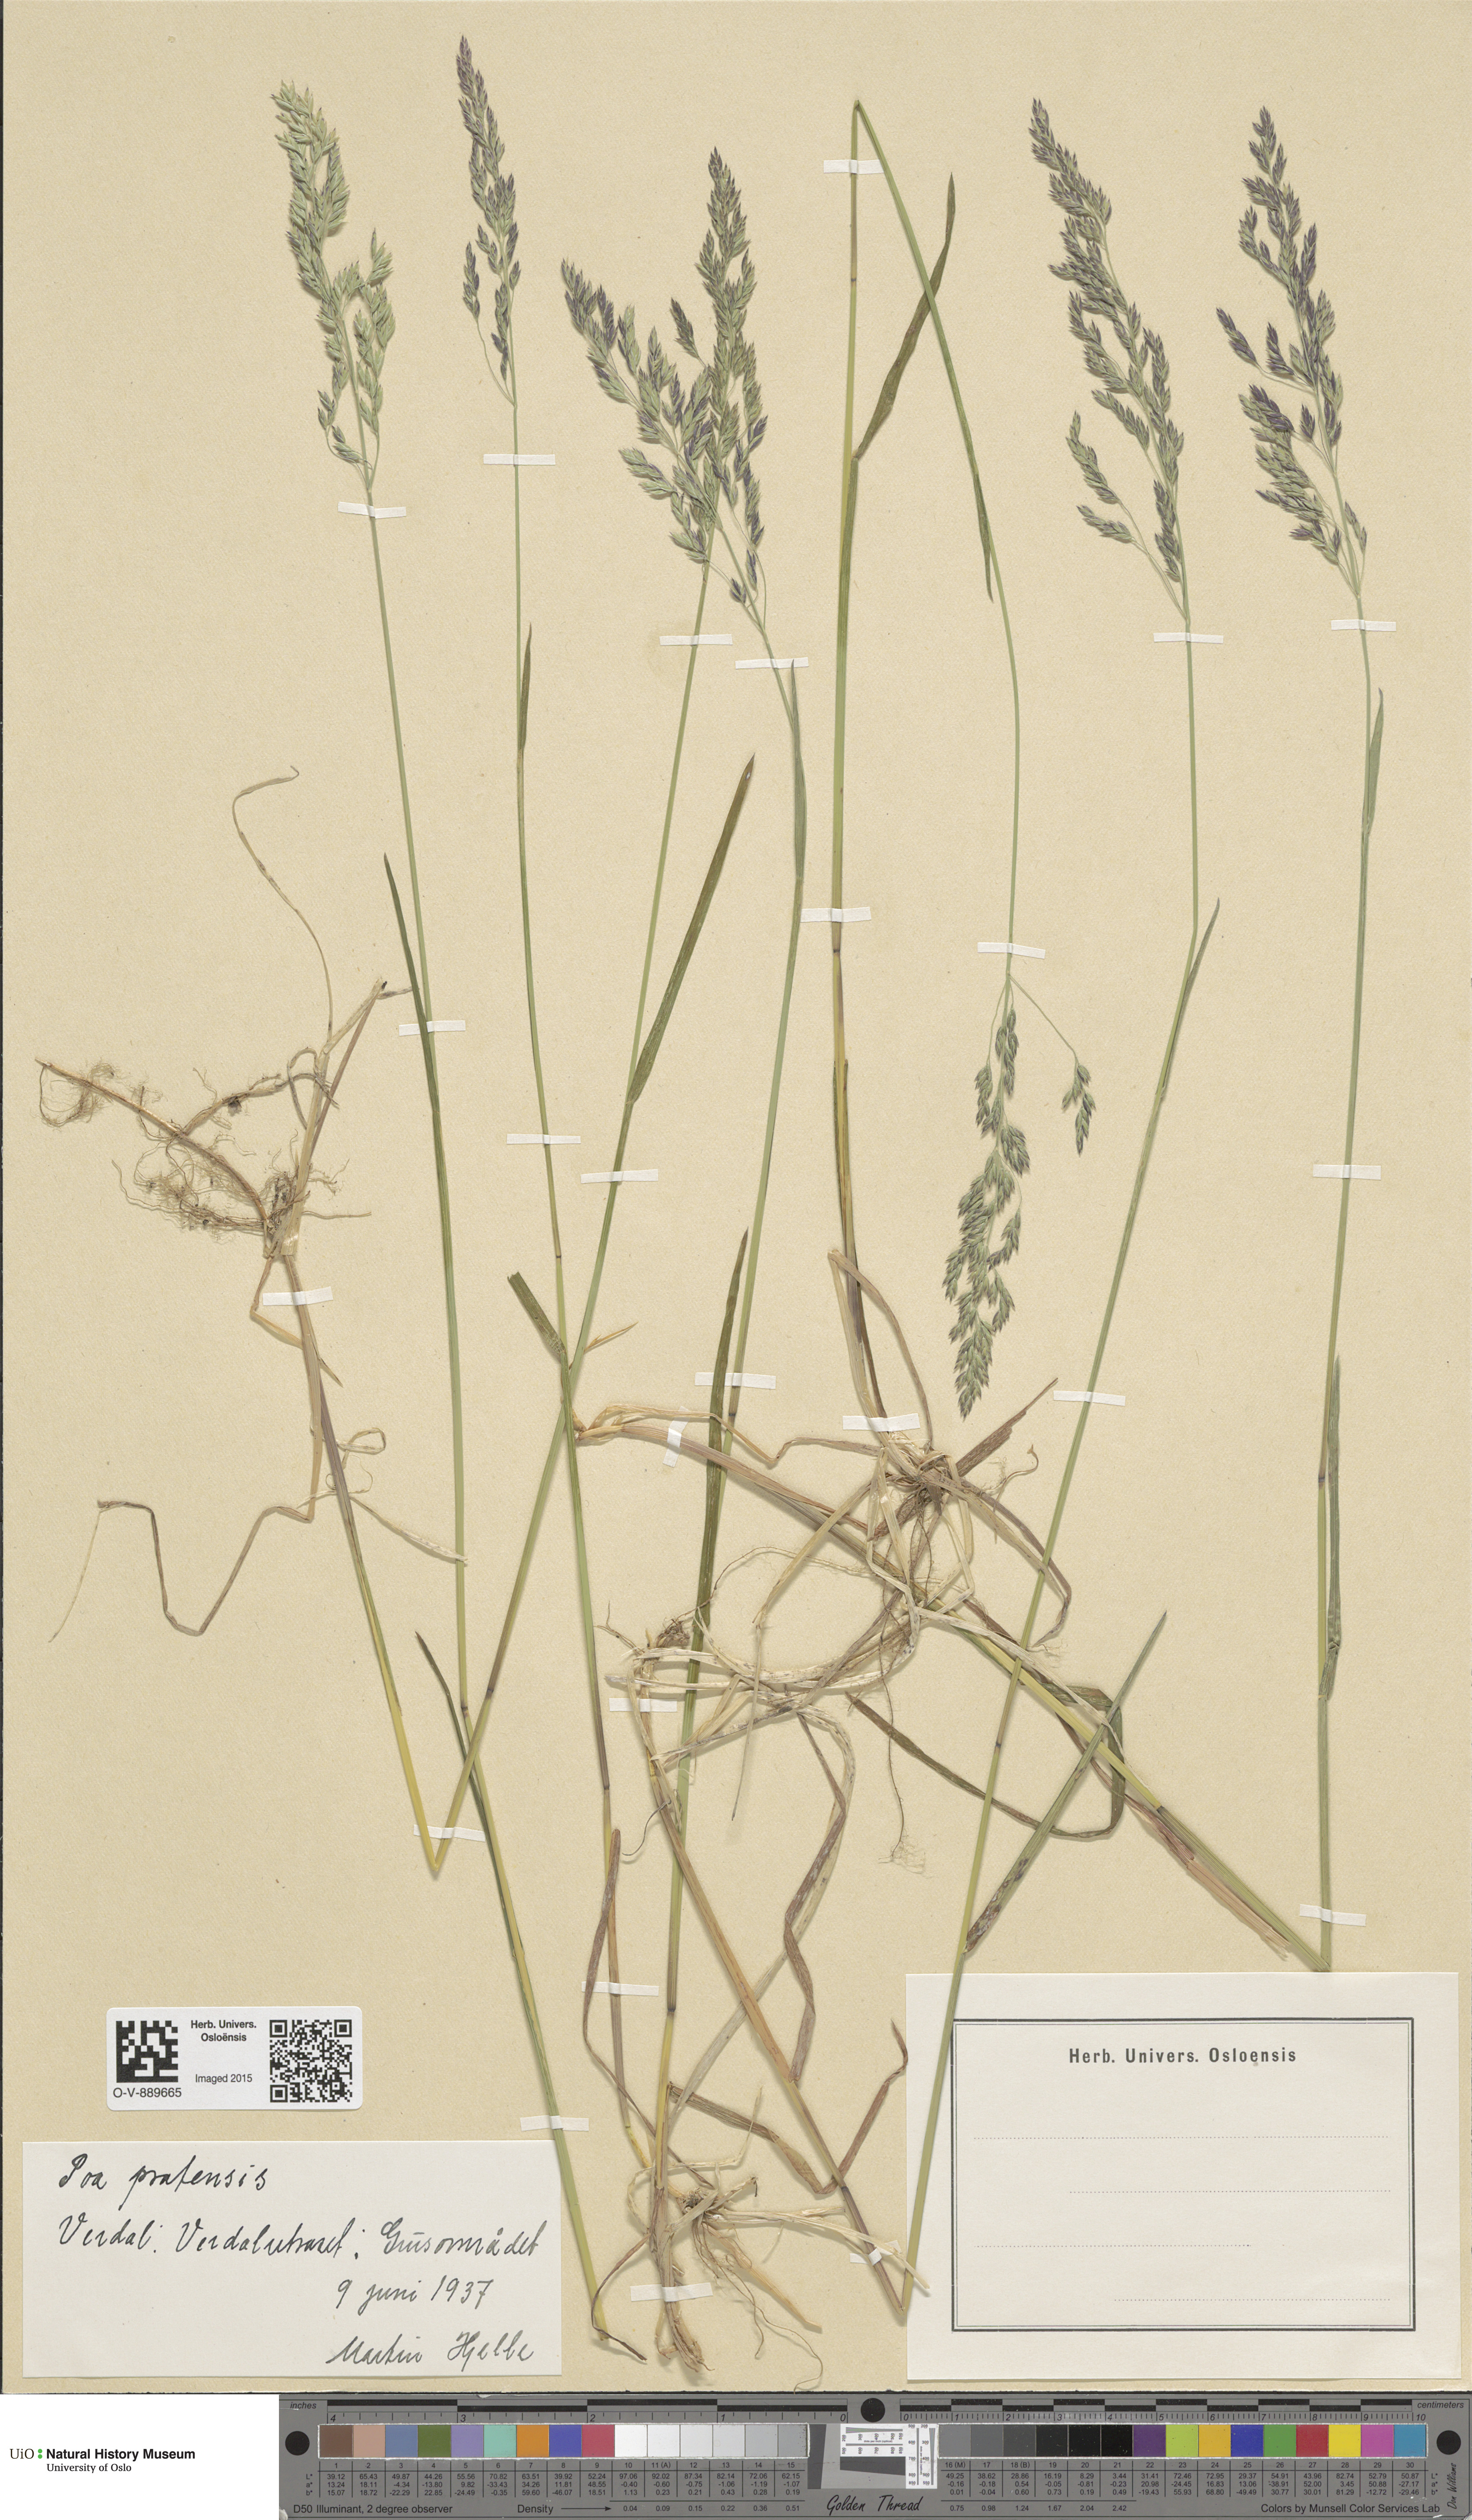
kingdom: Plantae
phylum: Tracheophyta
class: Liliopsida
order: Poales
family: Poaceae
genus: Poa
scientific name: Poa pratensis
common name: Kentucky bluegrass
